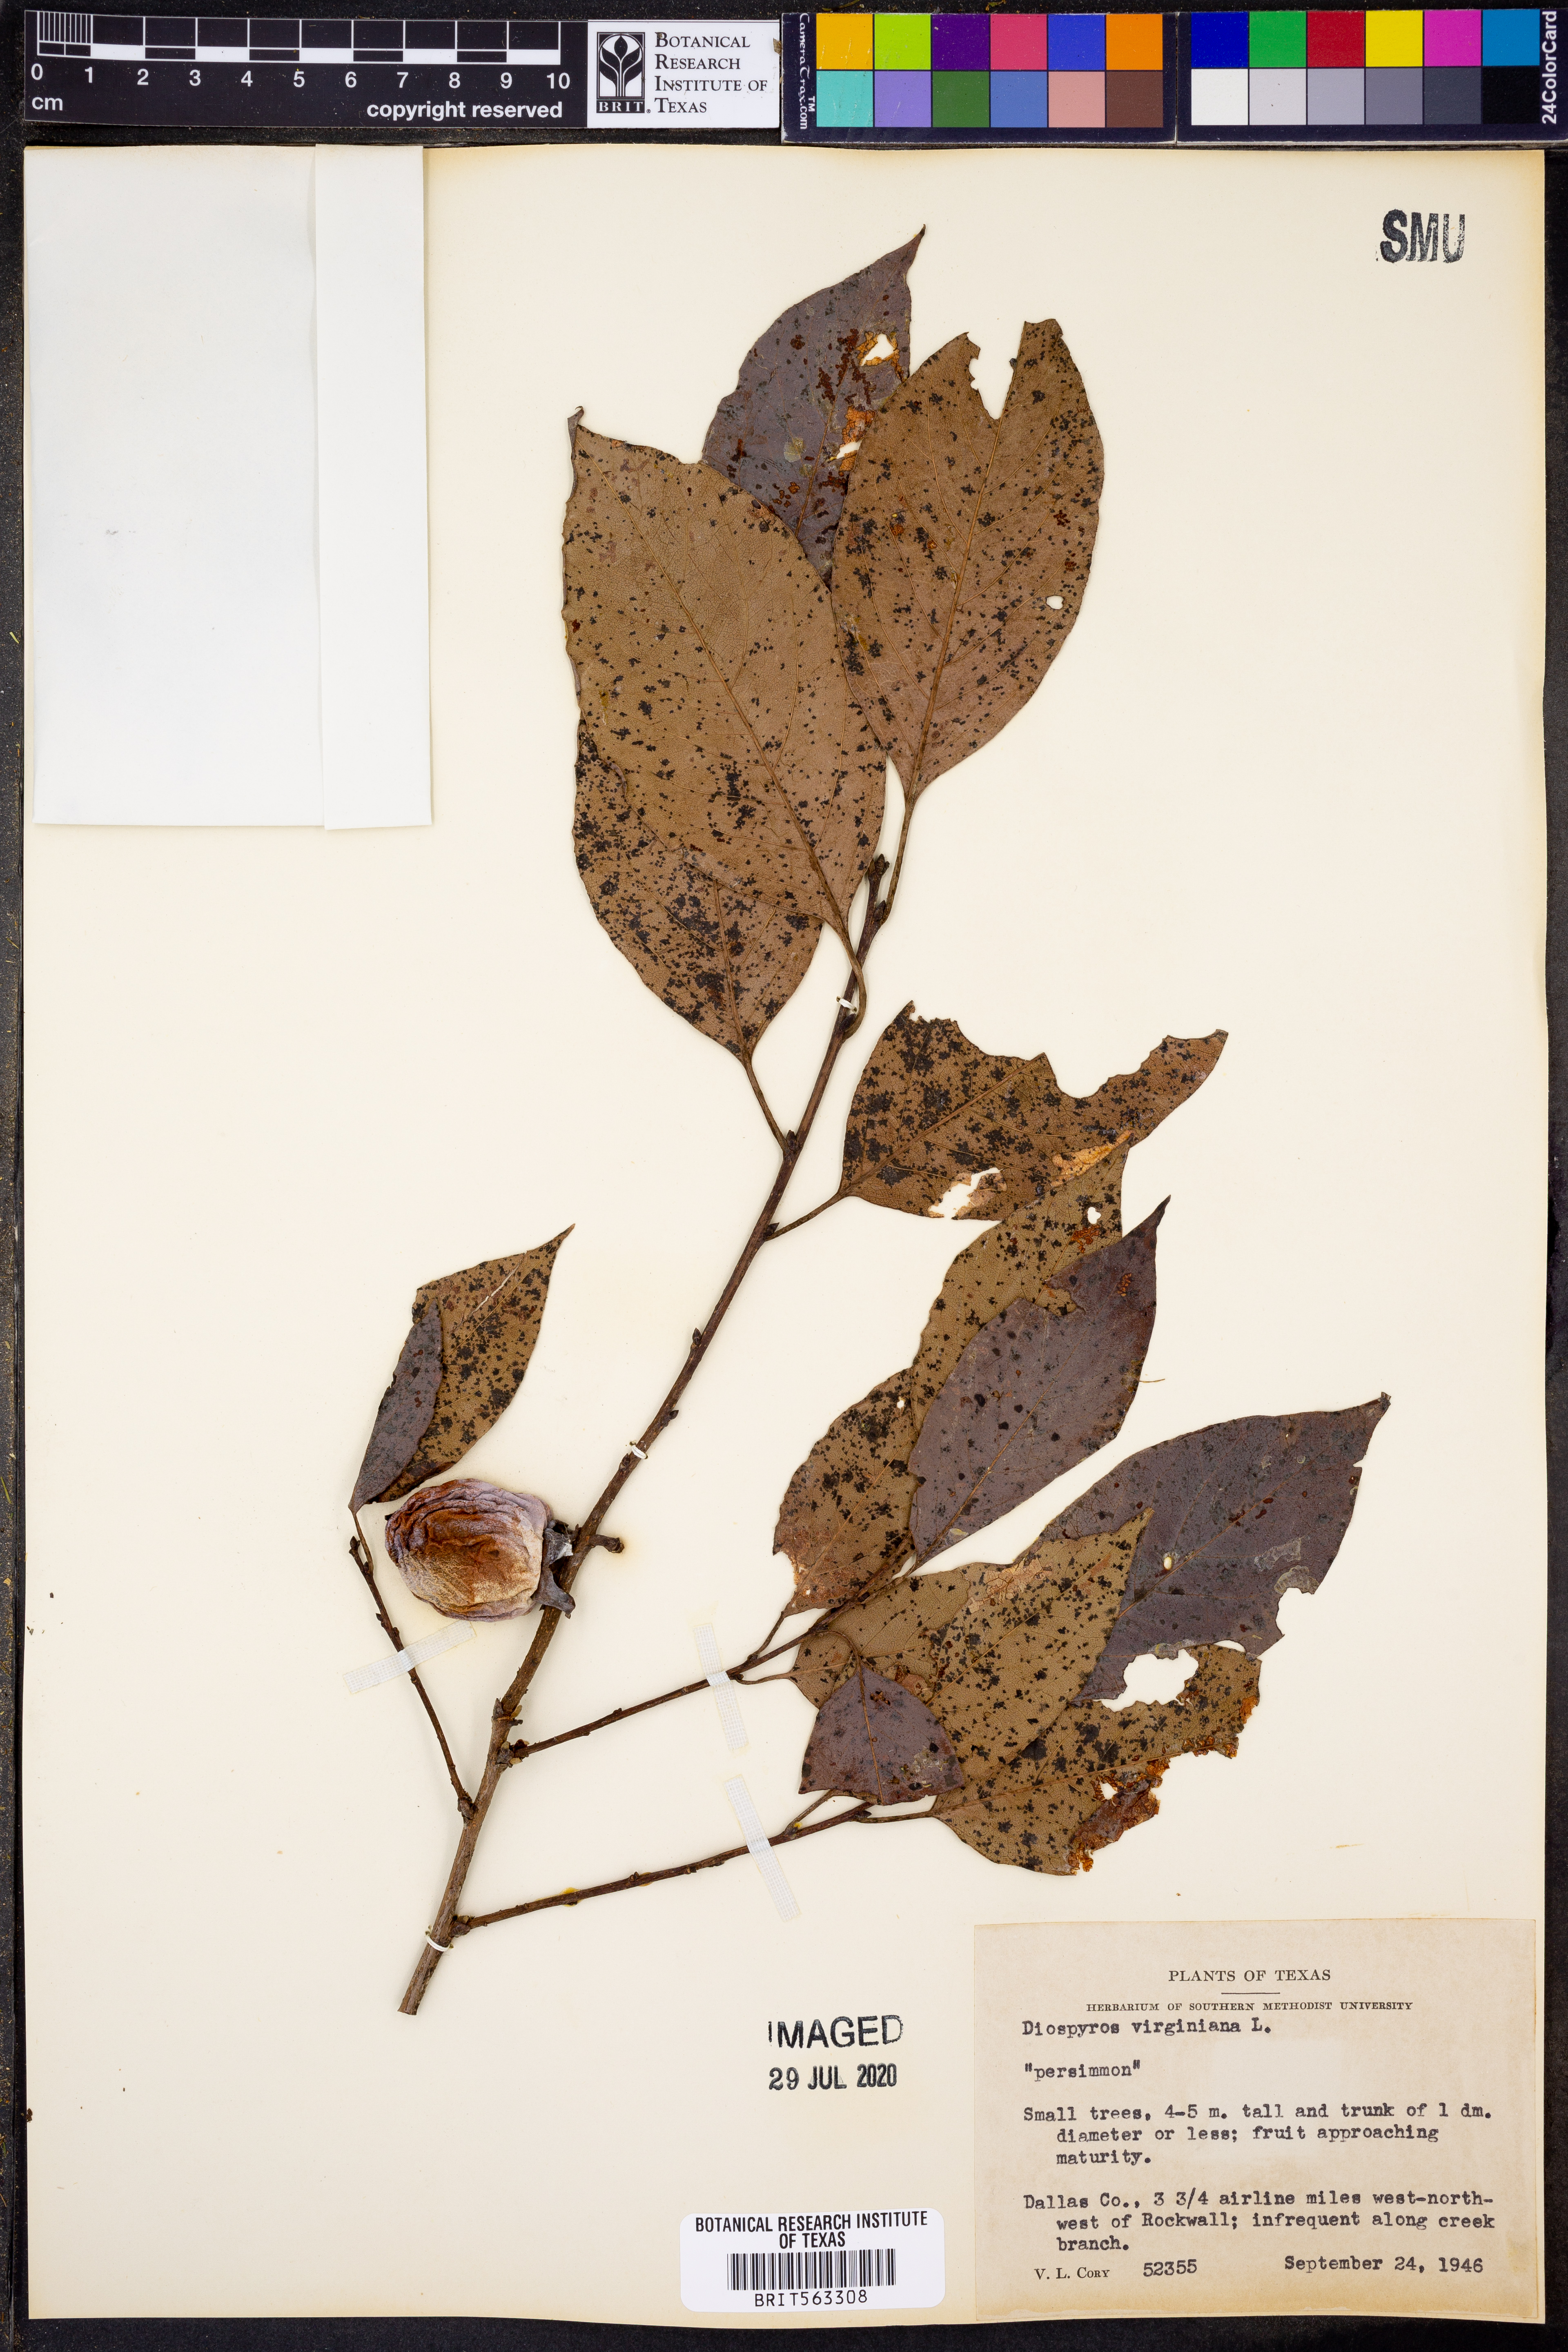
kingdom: Plantae
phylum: Tracheophyta
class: Magnoliopsida
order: Ericales
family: Ebenaceae
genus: Diospyros
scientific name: Diospyros virginiana
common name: Persimmon
